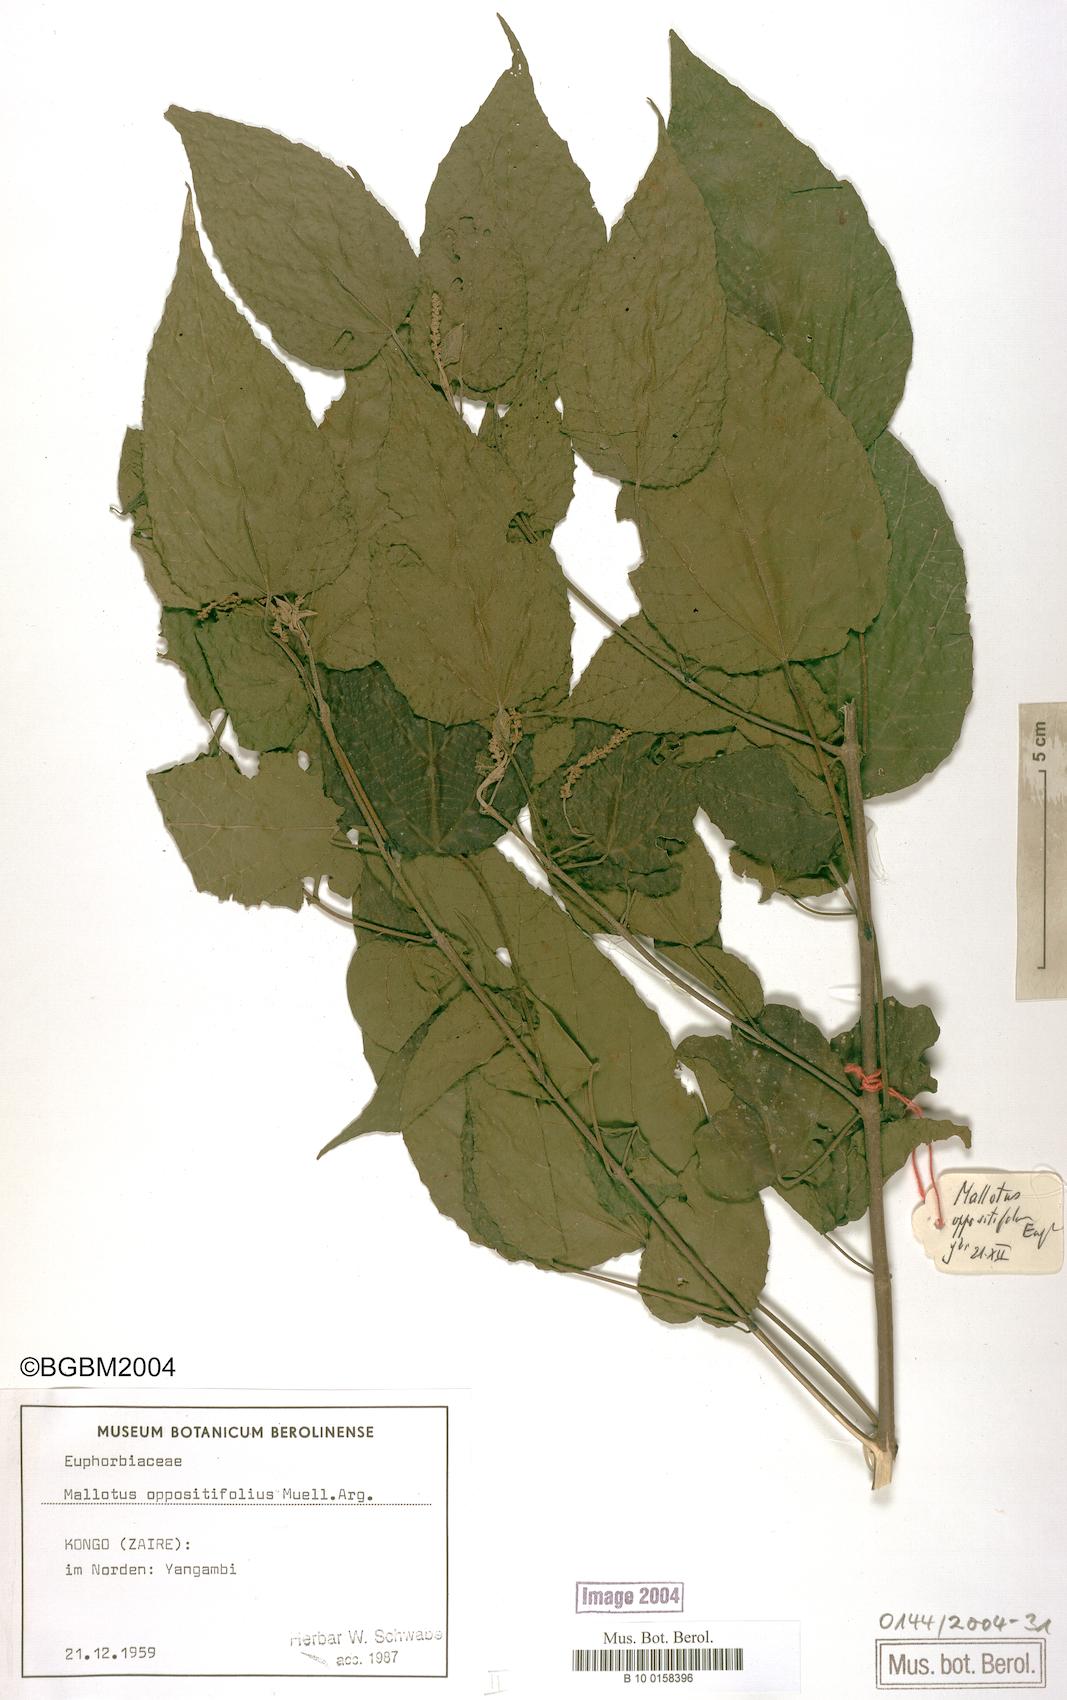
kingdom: Plantae
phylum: Tracheophyta
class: Magnoliopsida
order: Malpighiales
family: Euphorbiaceae
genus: Mallotus
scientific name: Mallotus oppositifolius
